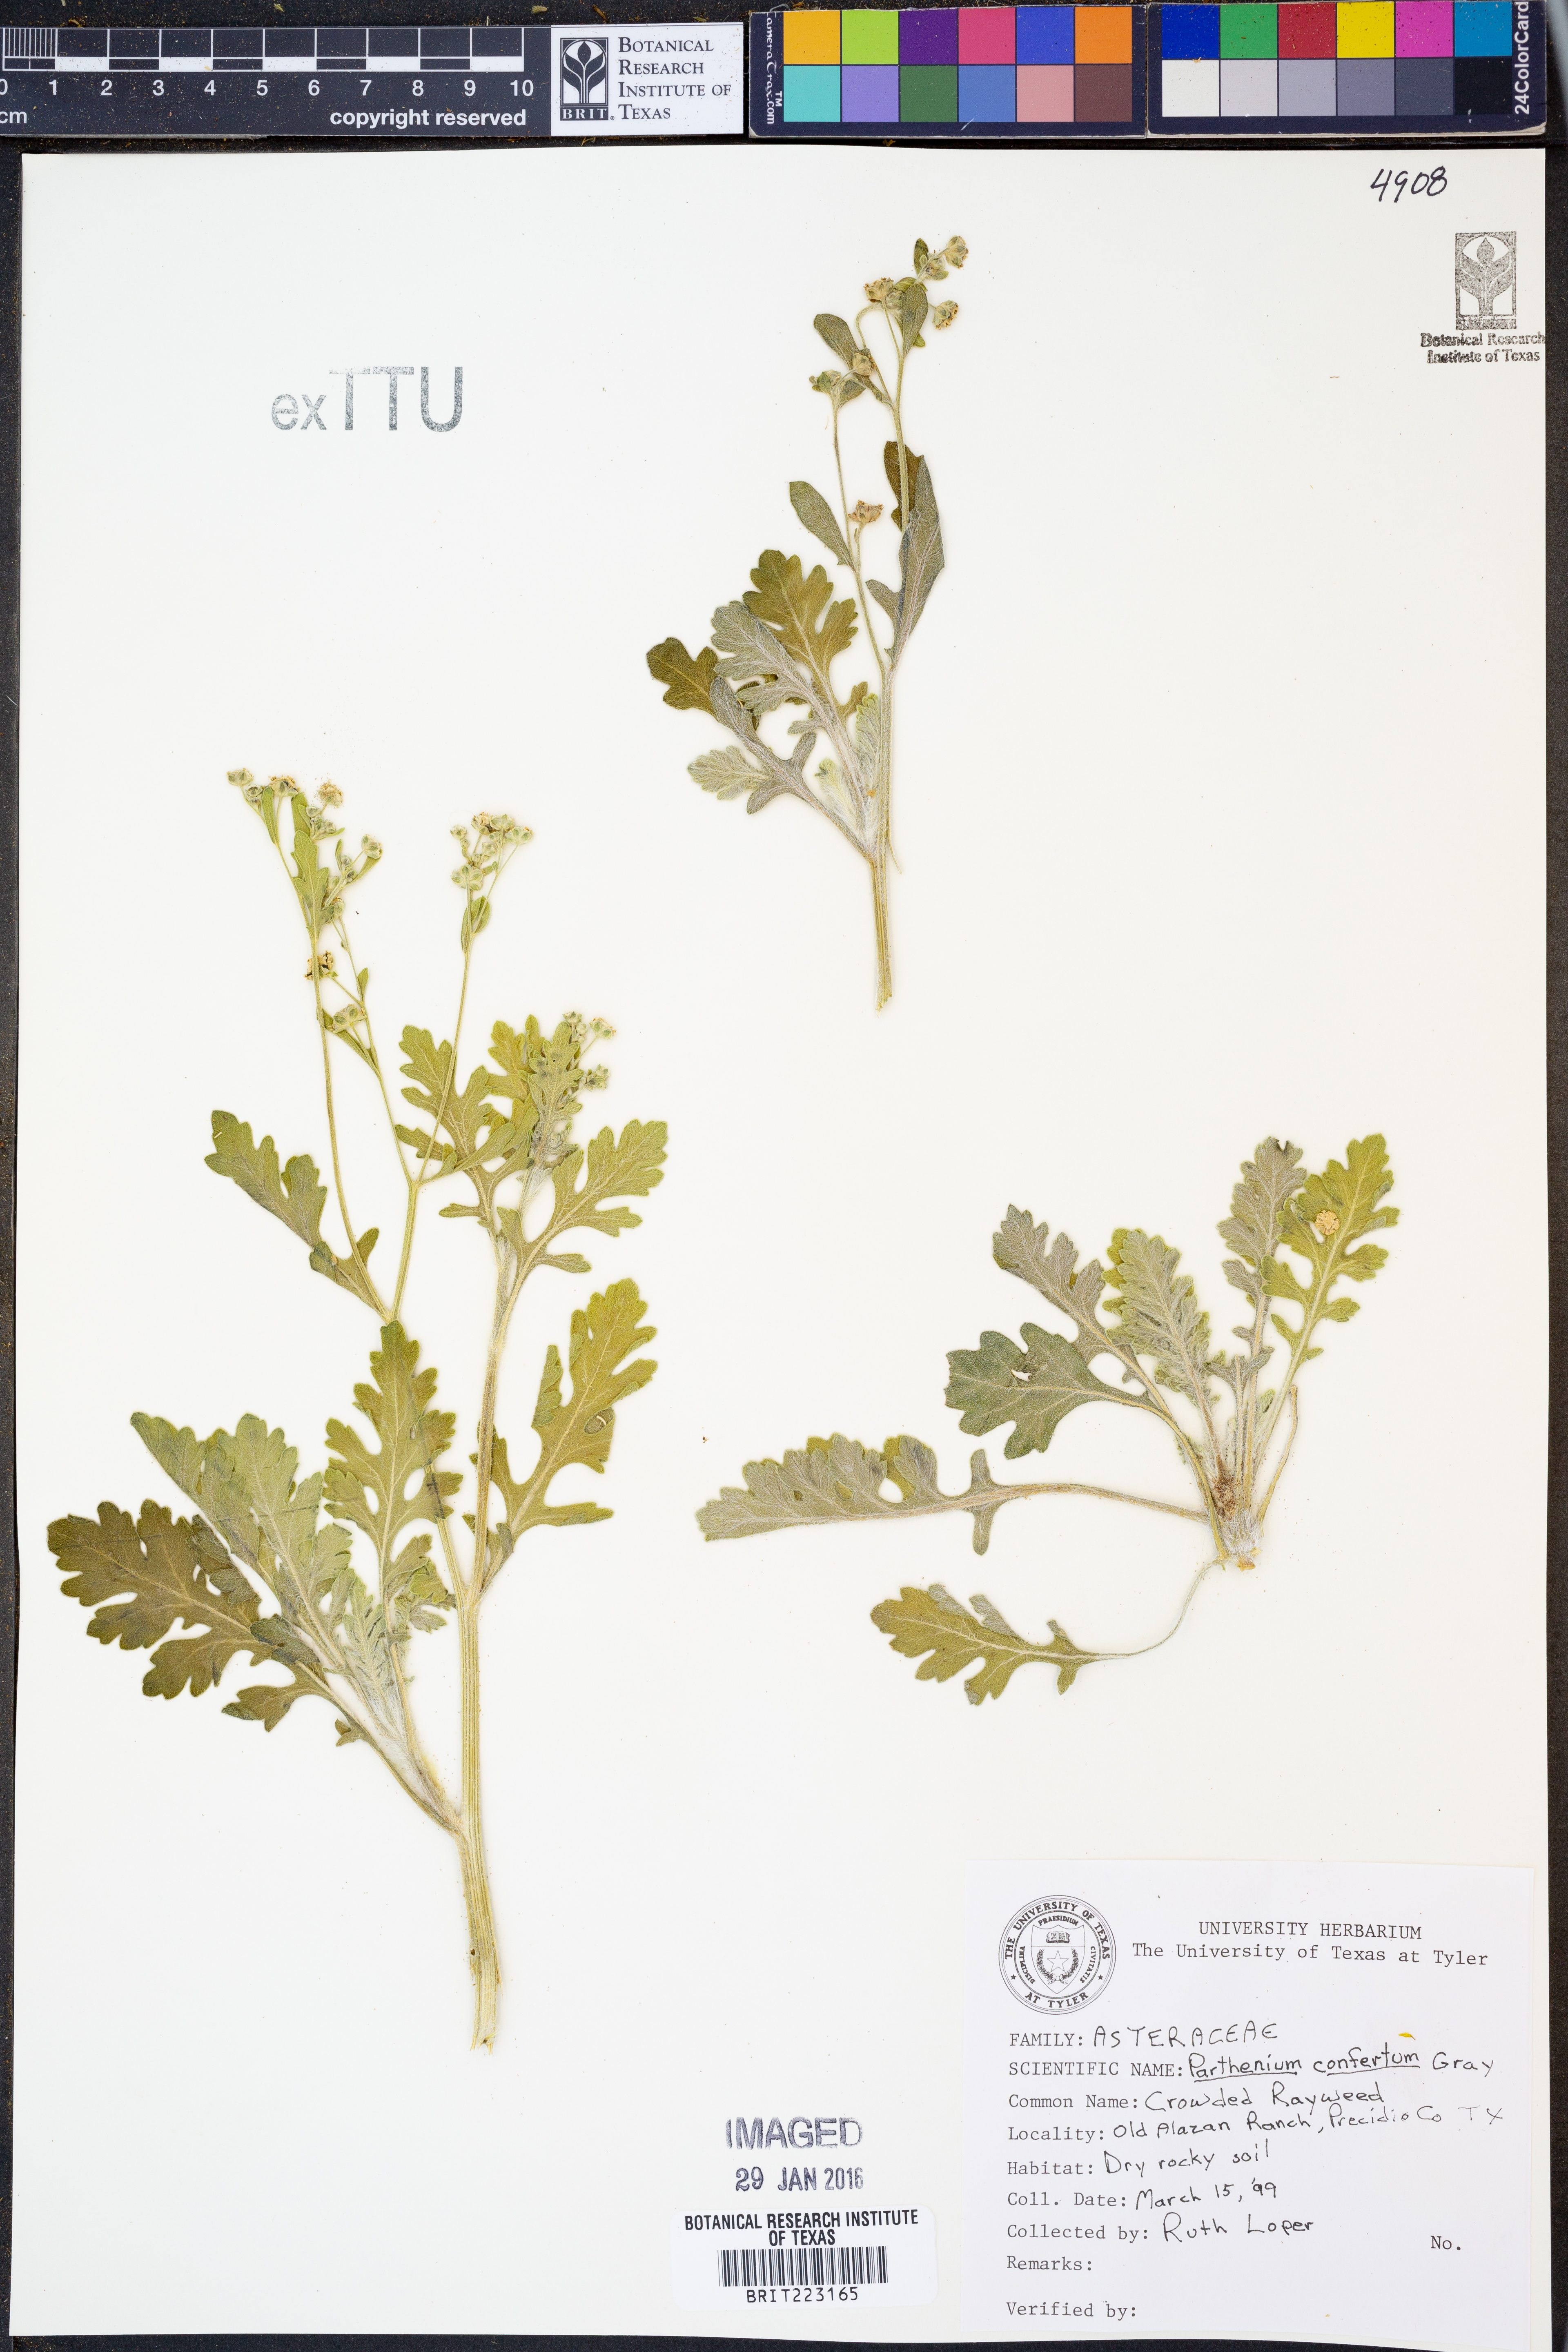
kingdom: Plantae
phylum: Tracheophyta
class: Magnoliopsida
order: Asterales
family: Asteraceae
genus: Parthenium
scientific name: Parthenium confertum
